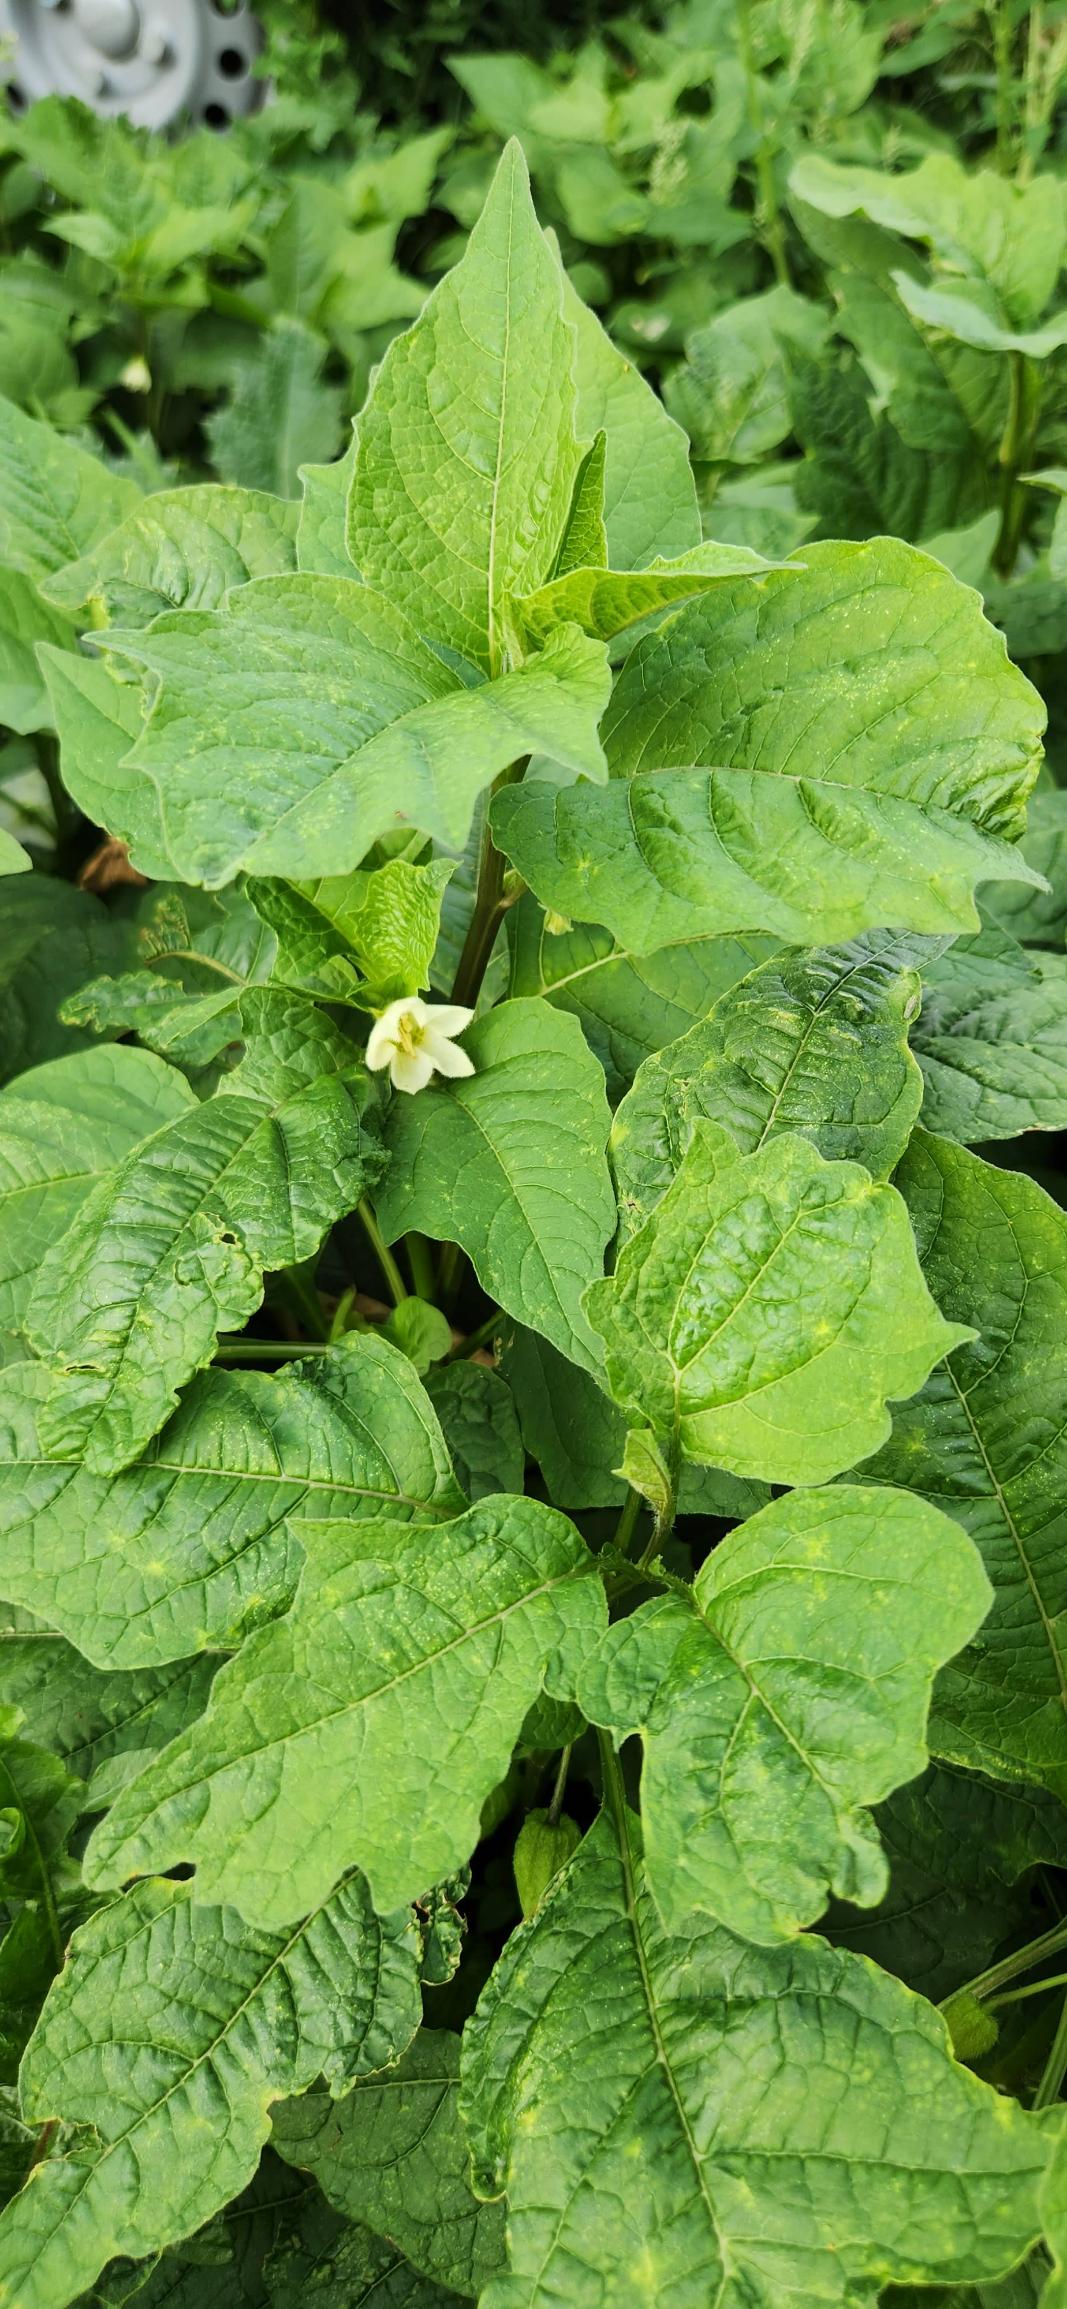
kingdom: Plantae
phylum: Tracheophyta
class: Magnoliopsida
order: Solanales
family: Solanaceae
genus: Alkekengi
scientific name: Alkekengi officinarum
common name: Jødekirsebær
